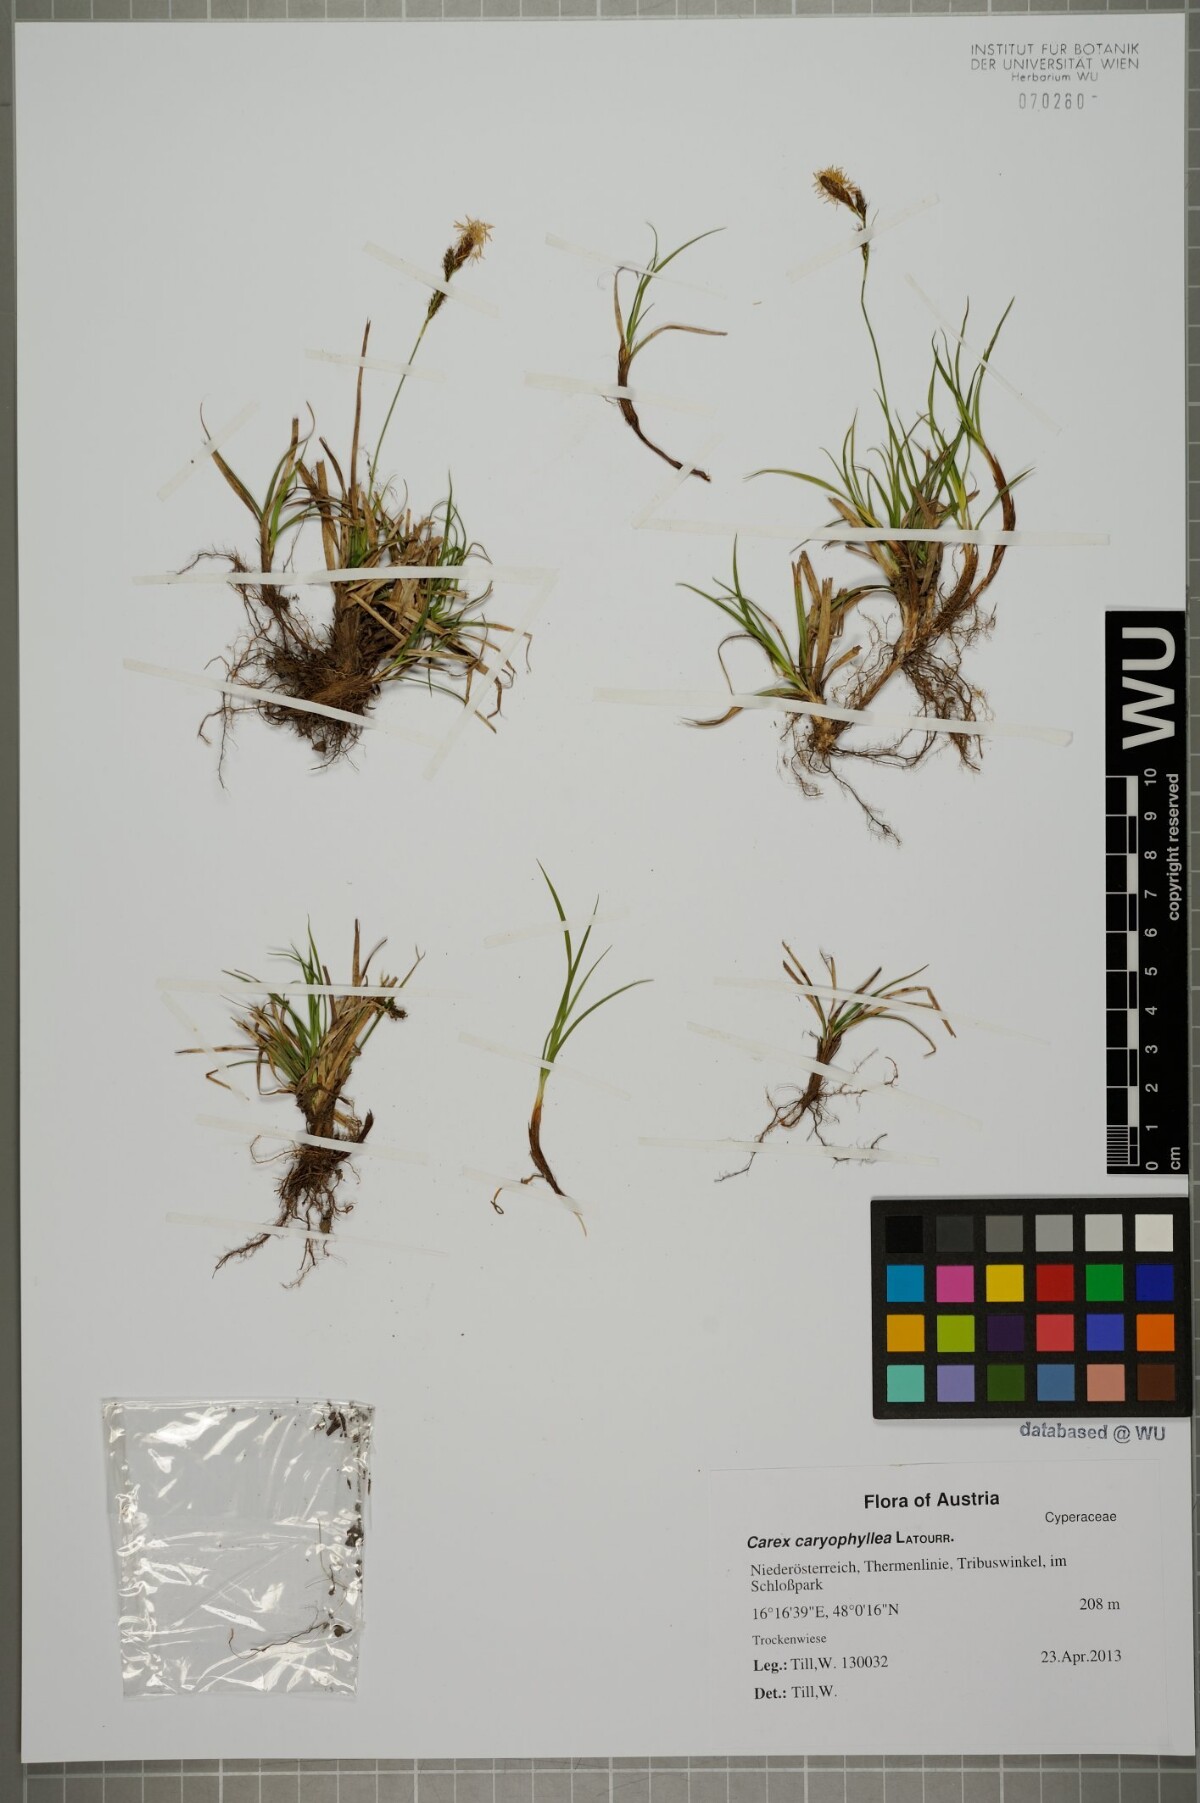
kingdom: Plantae
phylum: Tracheophyta
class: Liliopsida
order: Poales
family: Cyperaceae
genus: Carex
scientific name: Carex caryophyllea
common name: Spring sedge
